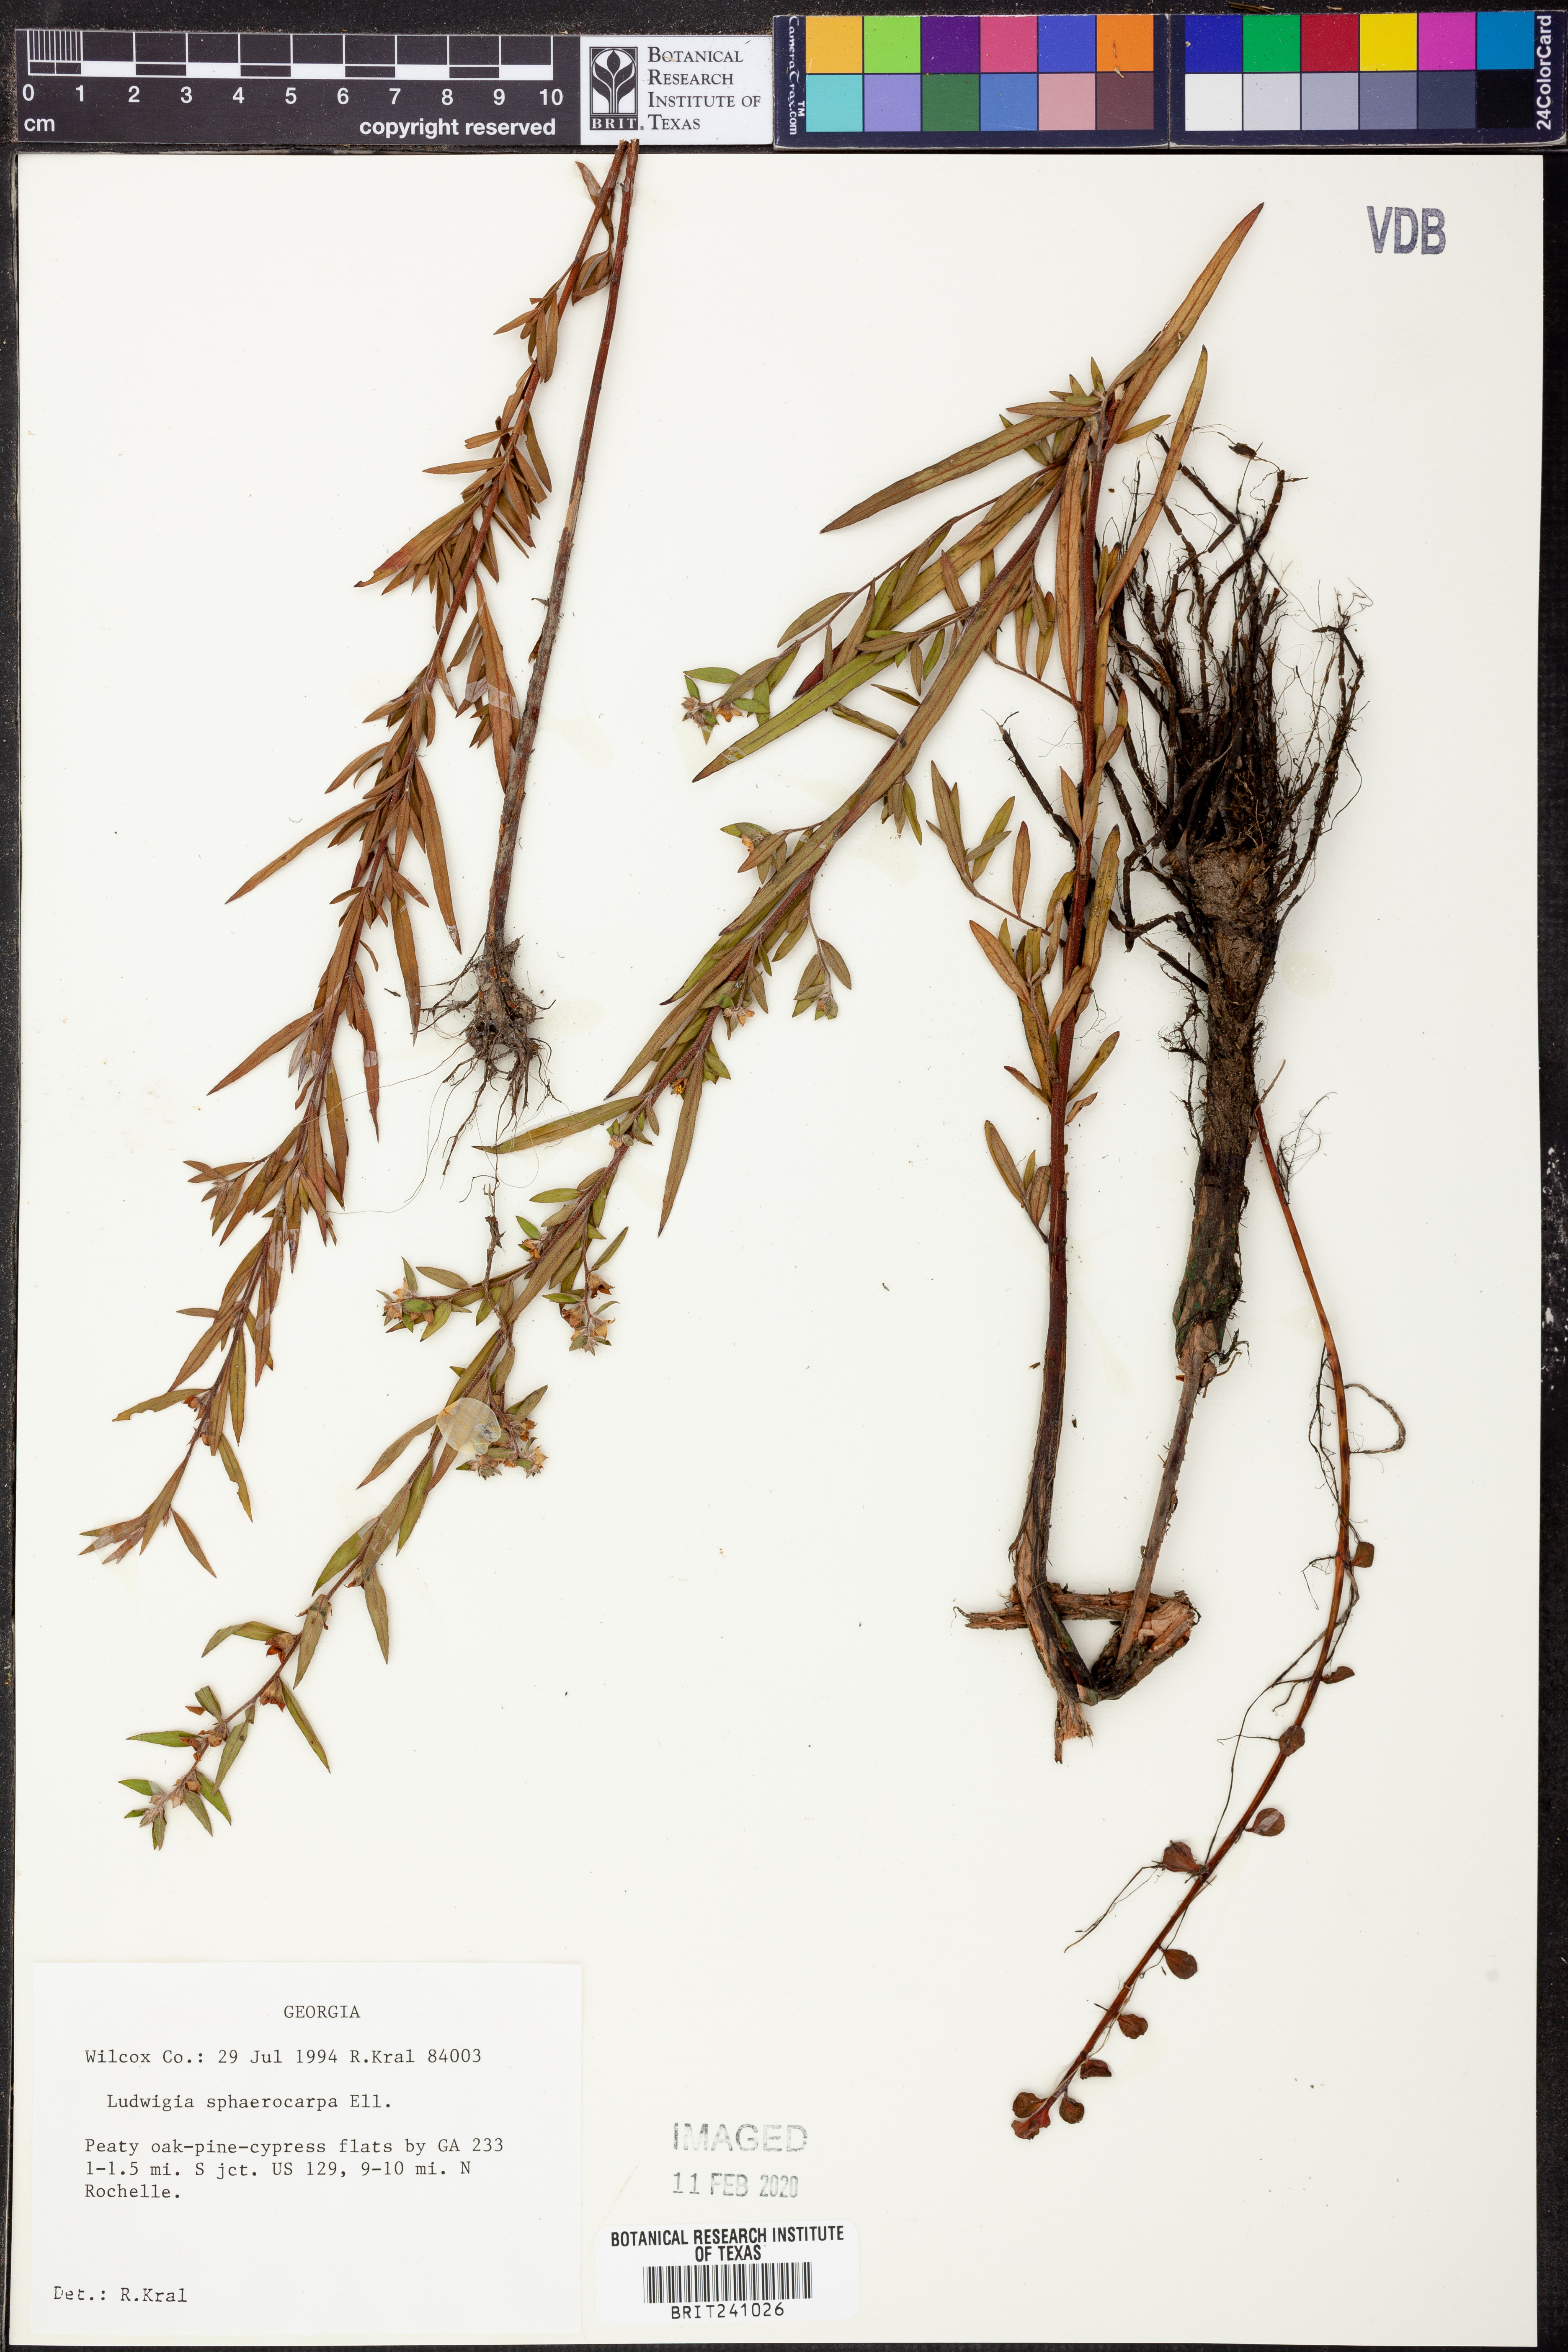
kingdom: Plantae
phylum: Tracheophyta
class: Magnoliopsida
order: Myrtales
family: Onagraceae
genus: Ludwigia
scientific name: Ludwigia sphaerocarpa
